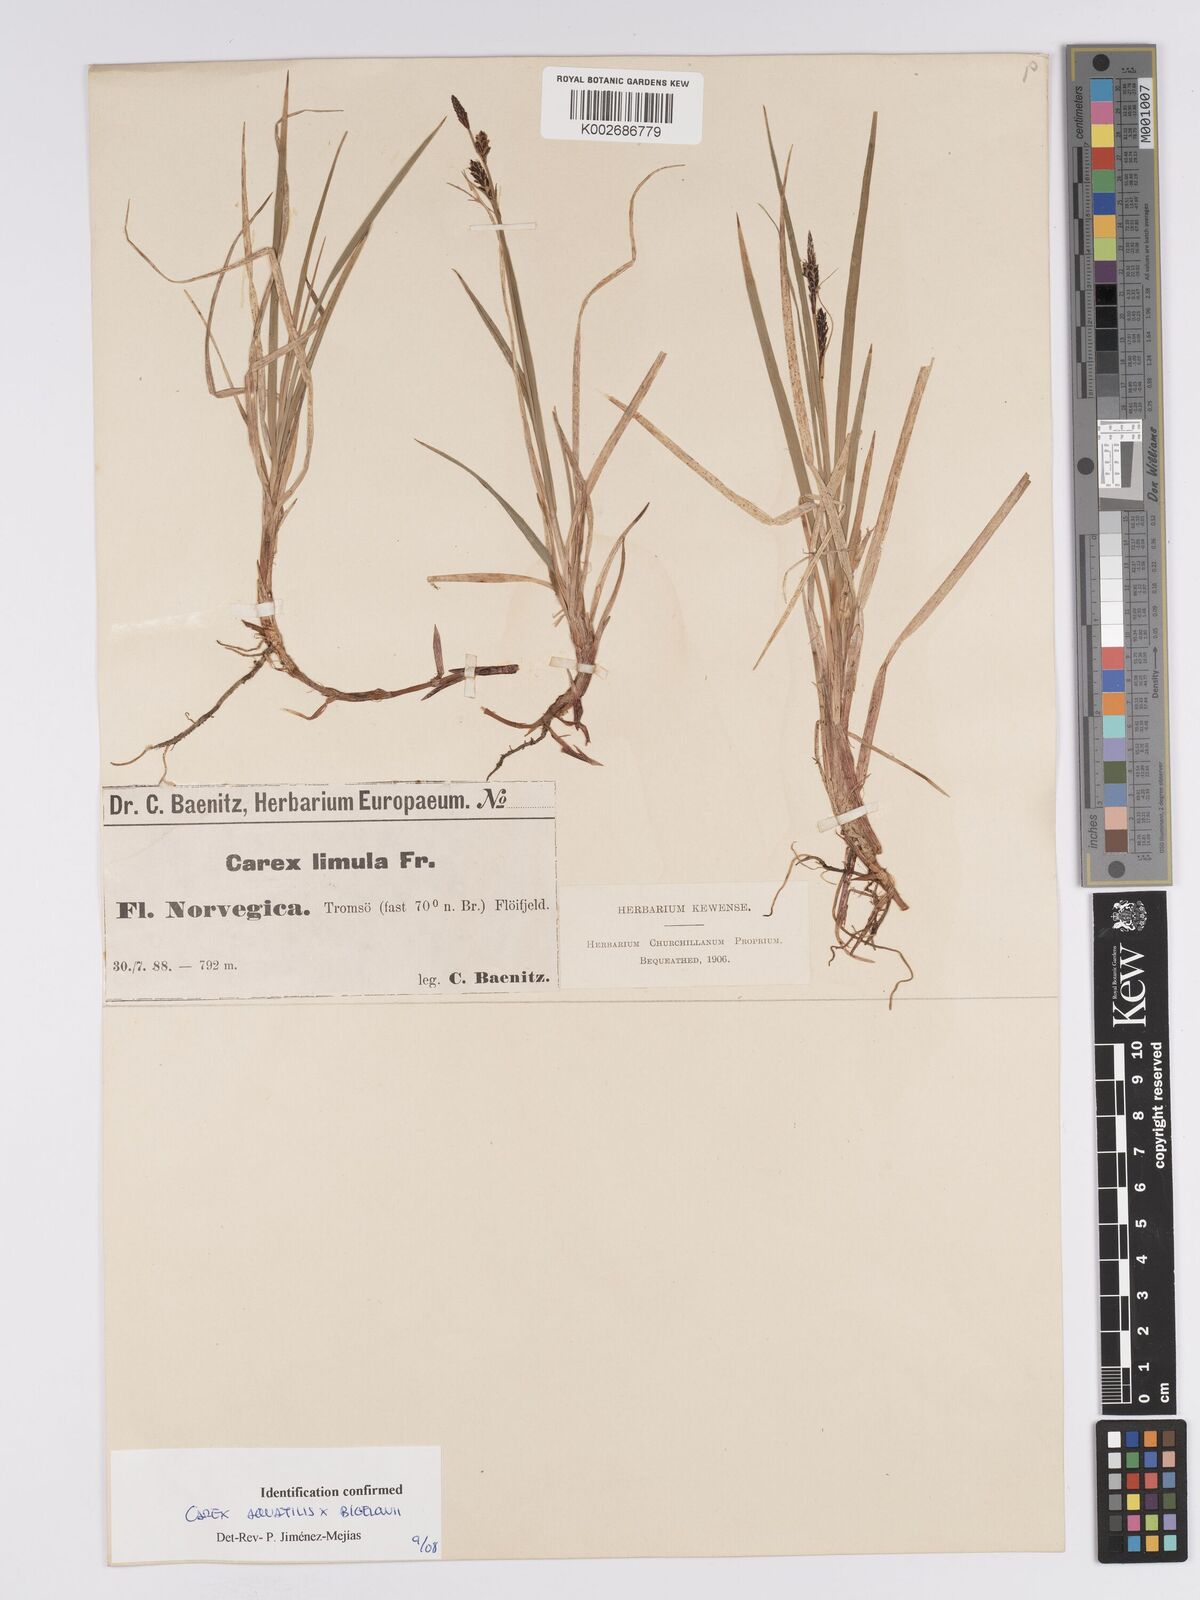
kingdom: Plantae
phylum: Tracheophyta
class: Liliopsida
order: Poales
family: Cyperaceae
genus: Carex
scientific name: Carex aquatilis
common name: Water sedge
